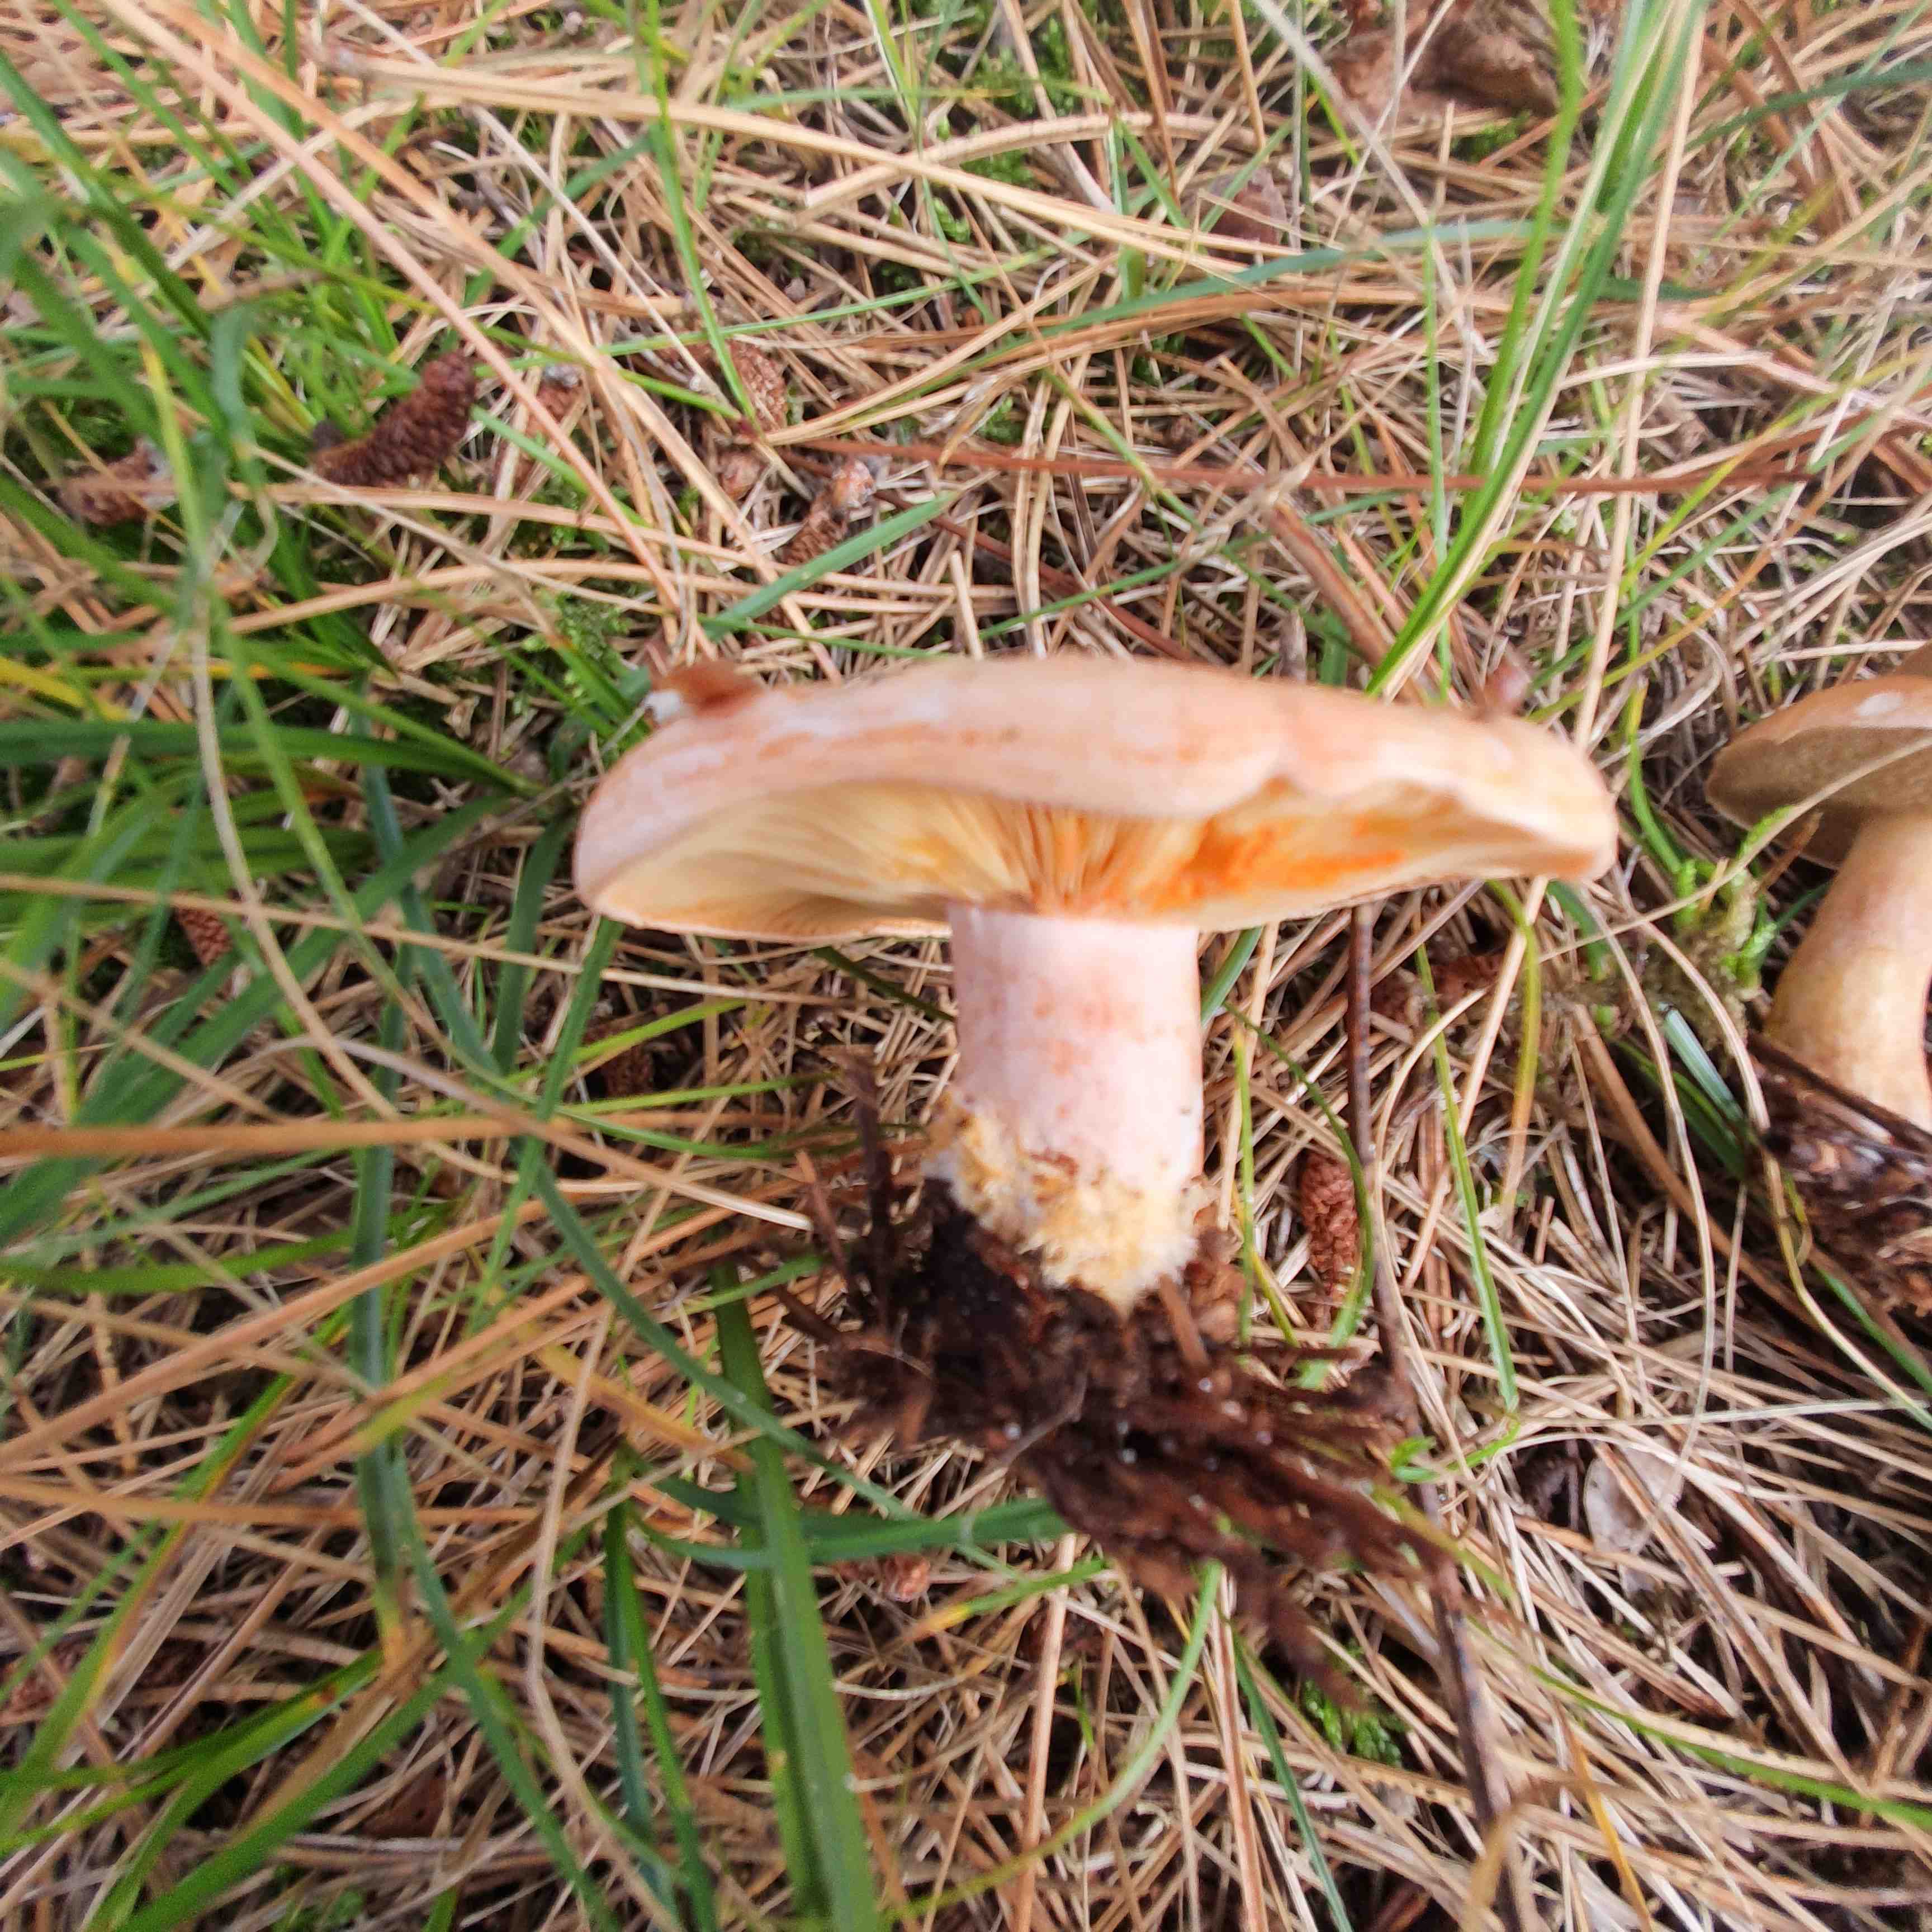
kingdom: Fungi
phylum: Basidiomycota
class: Agaricomycetes
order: Russulales
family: Russulaceae
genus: Lactarius
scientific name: Lactarius deliciosus
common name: velsmagende mælkehat
